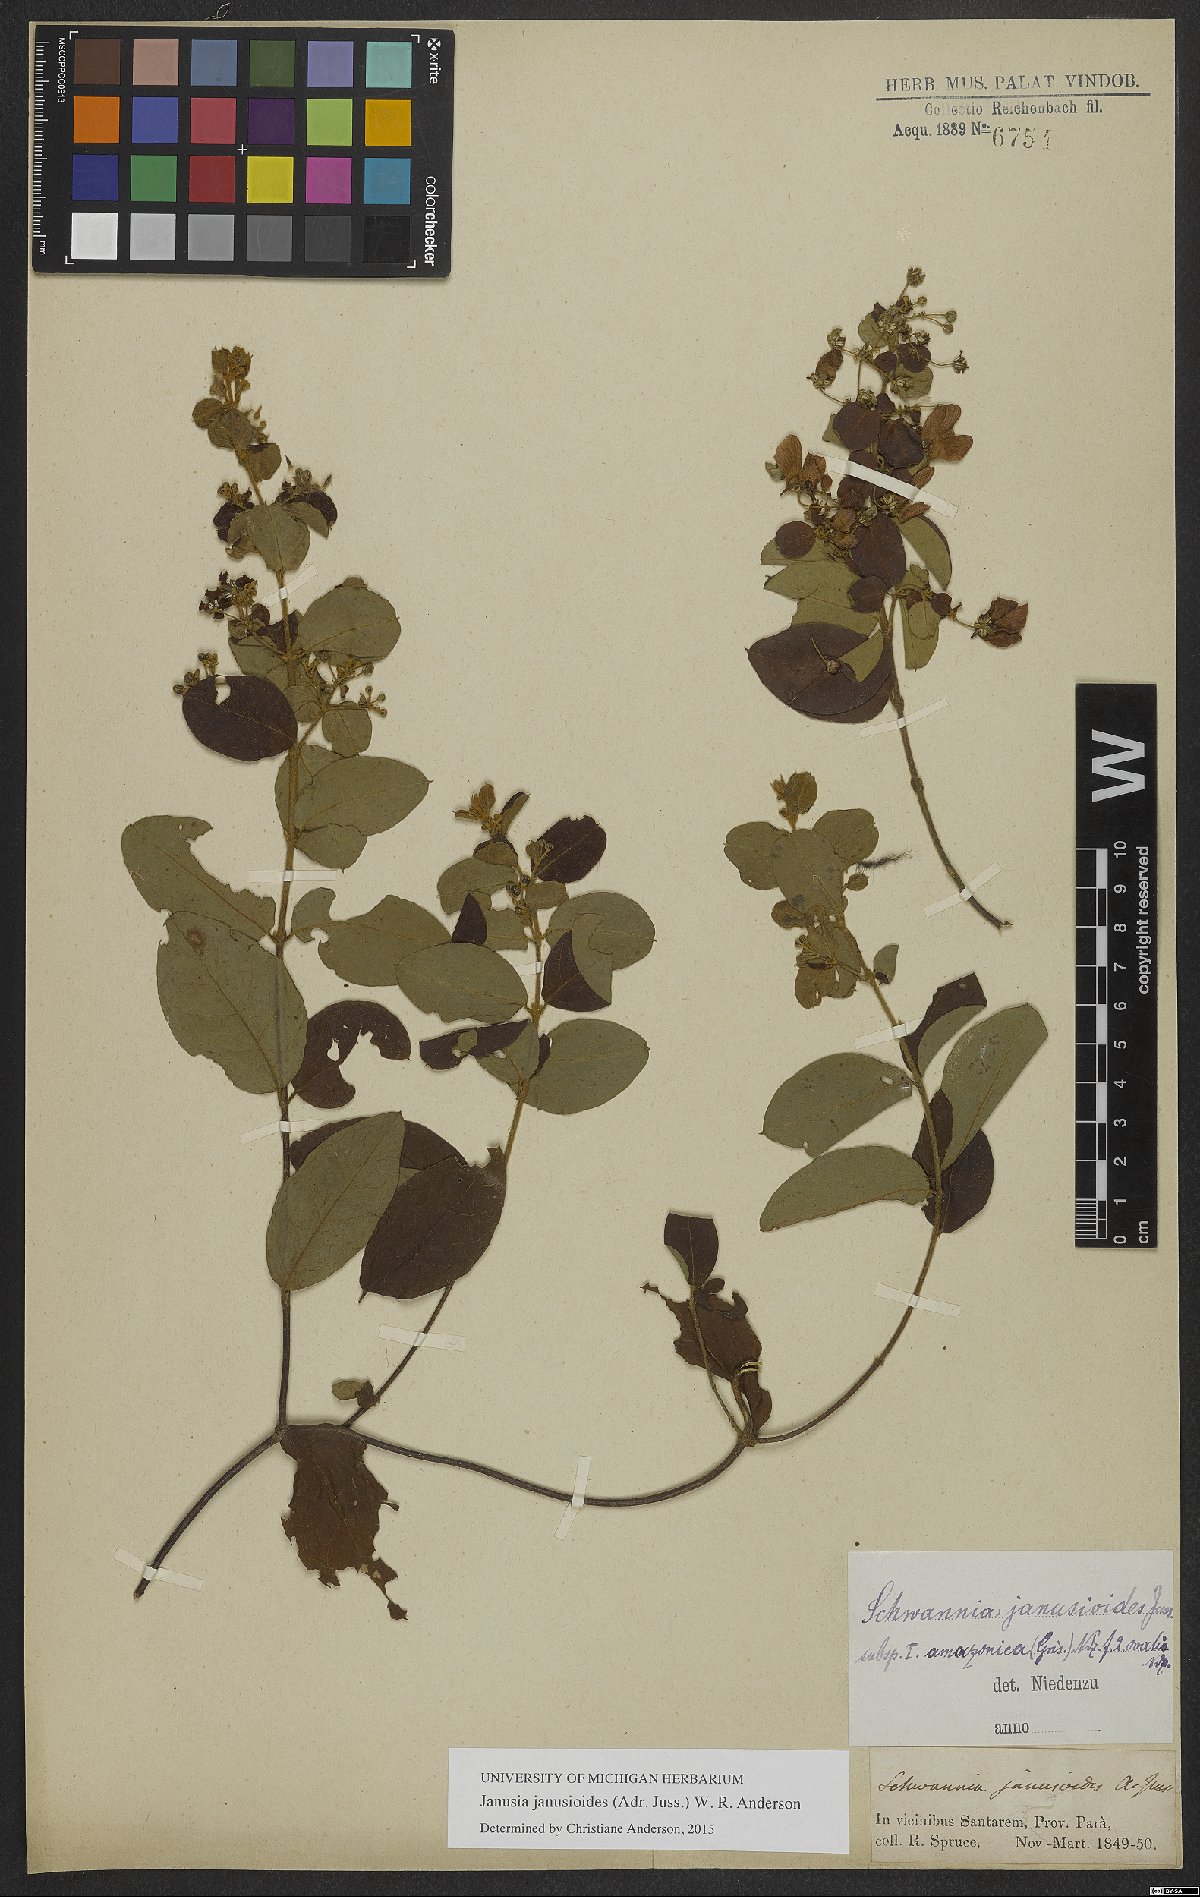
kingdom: Plantae
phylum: Tracheophyta
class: Magnoliopsida
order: Malpighiales
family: Malpighiaceae
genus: Janusia
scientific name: Janusia janusioides
